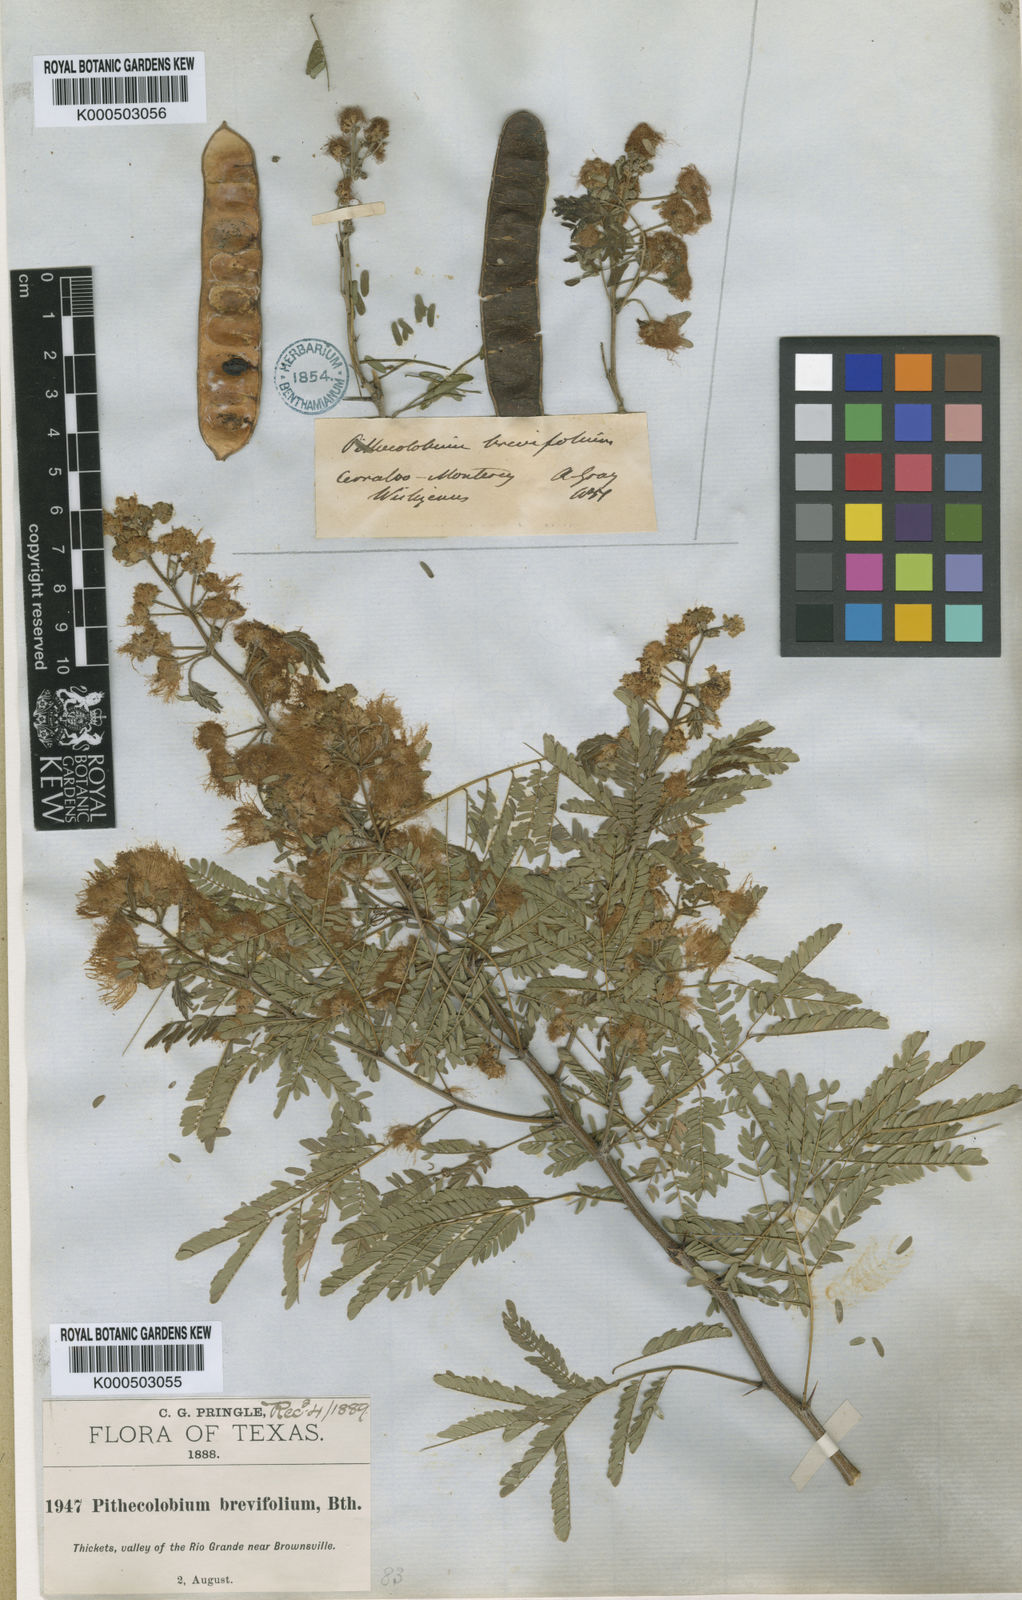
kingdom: Plantae
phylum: Tracheophyta
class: Magnoliopsida
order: Fabales
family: Fabaceae
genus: Havardia
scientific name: Havardia pallens
